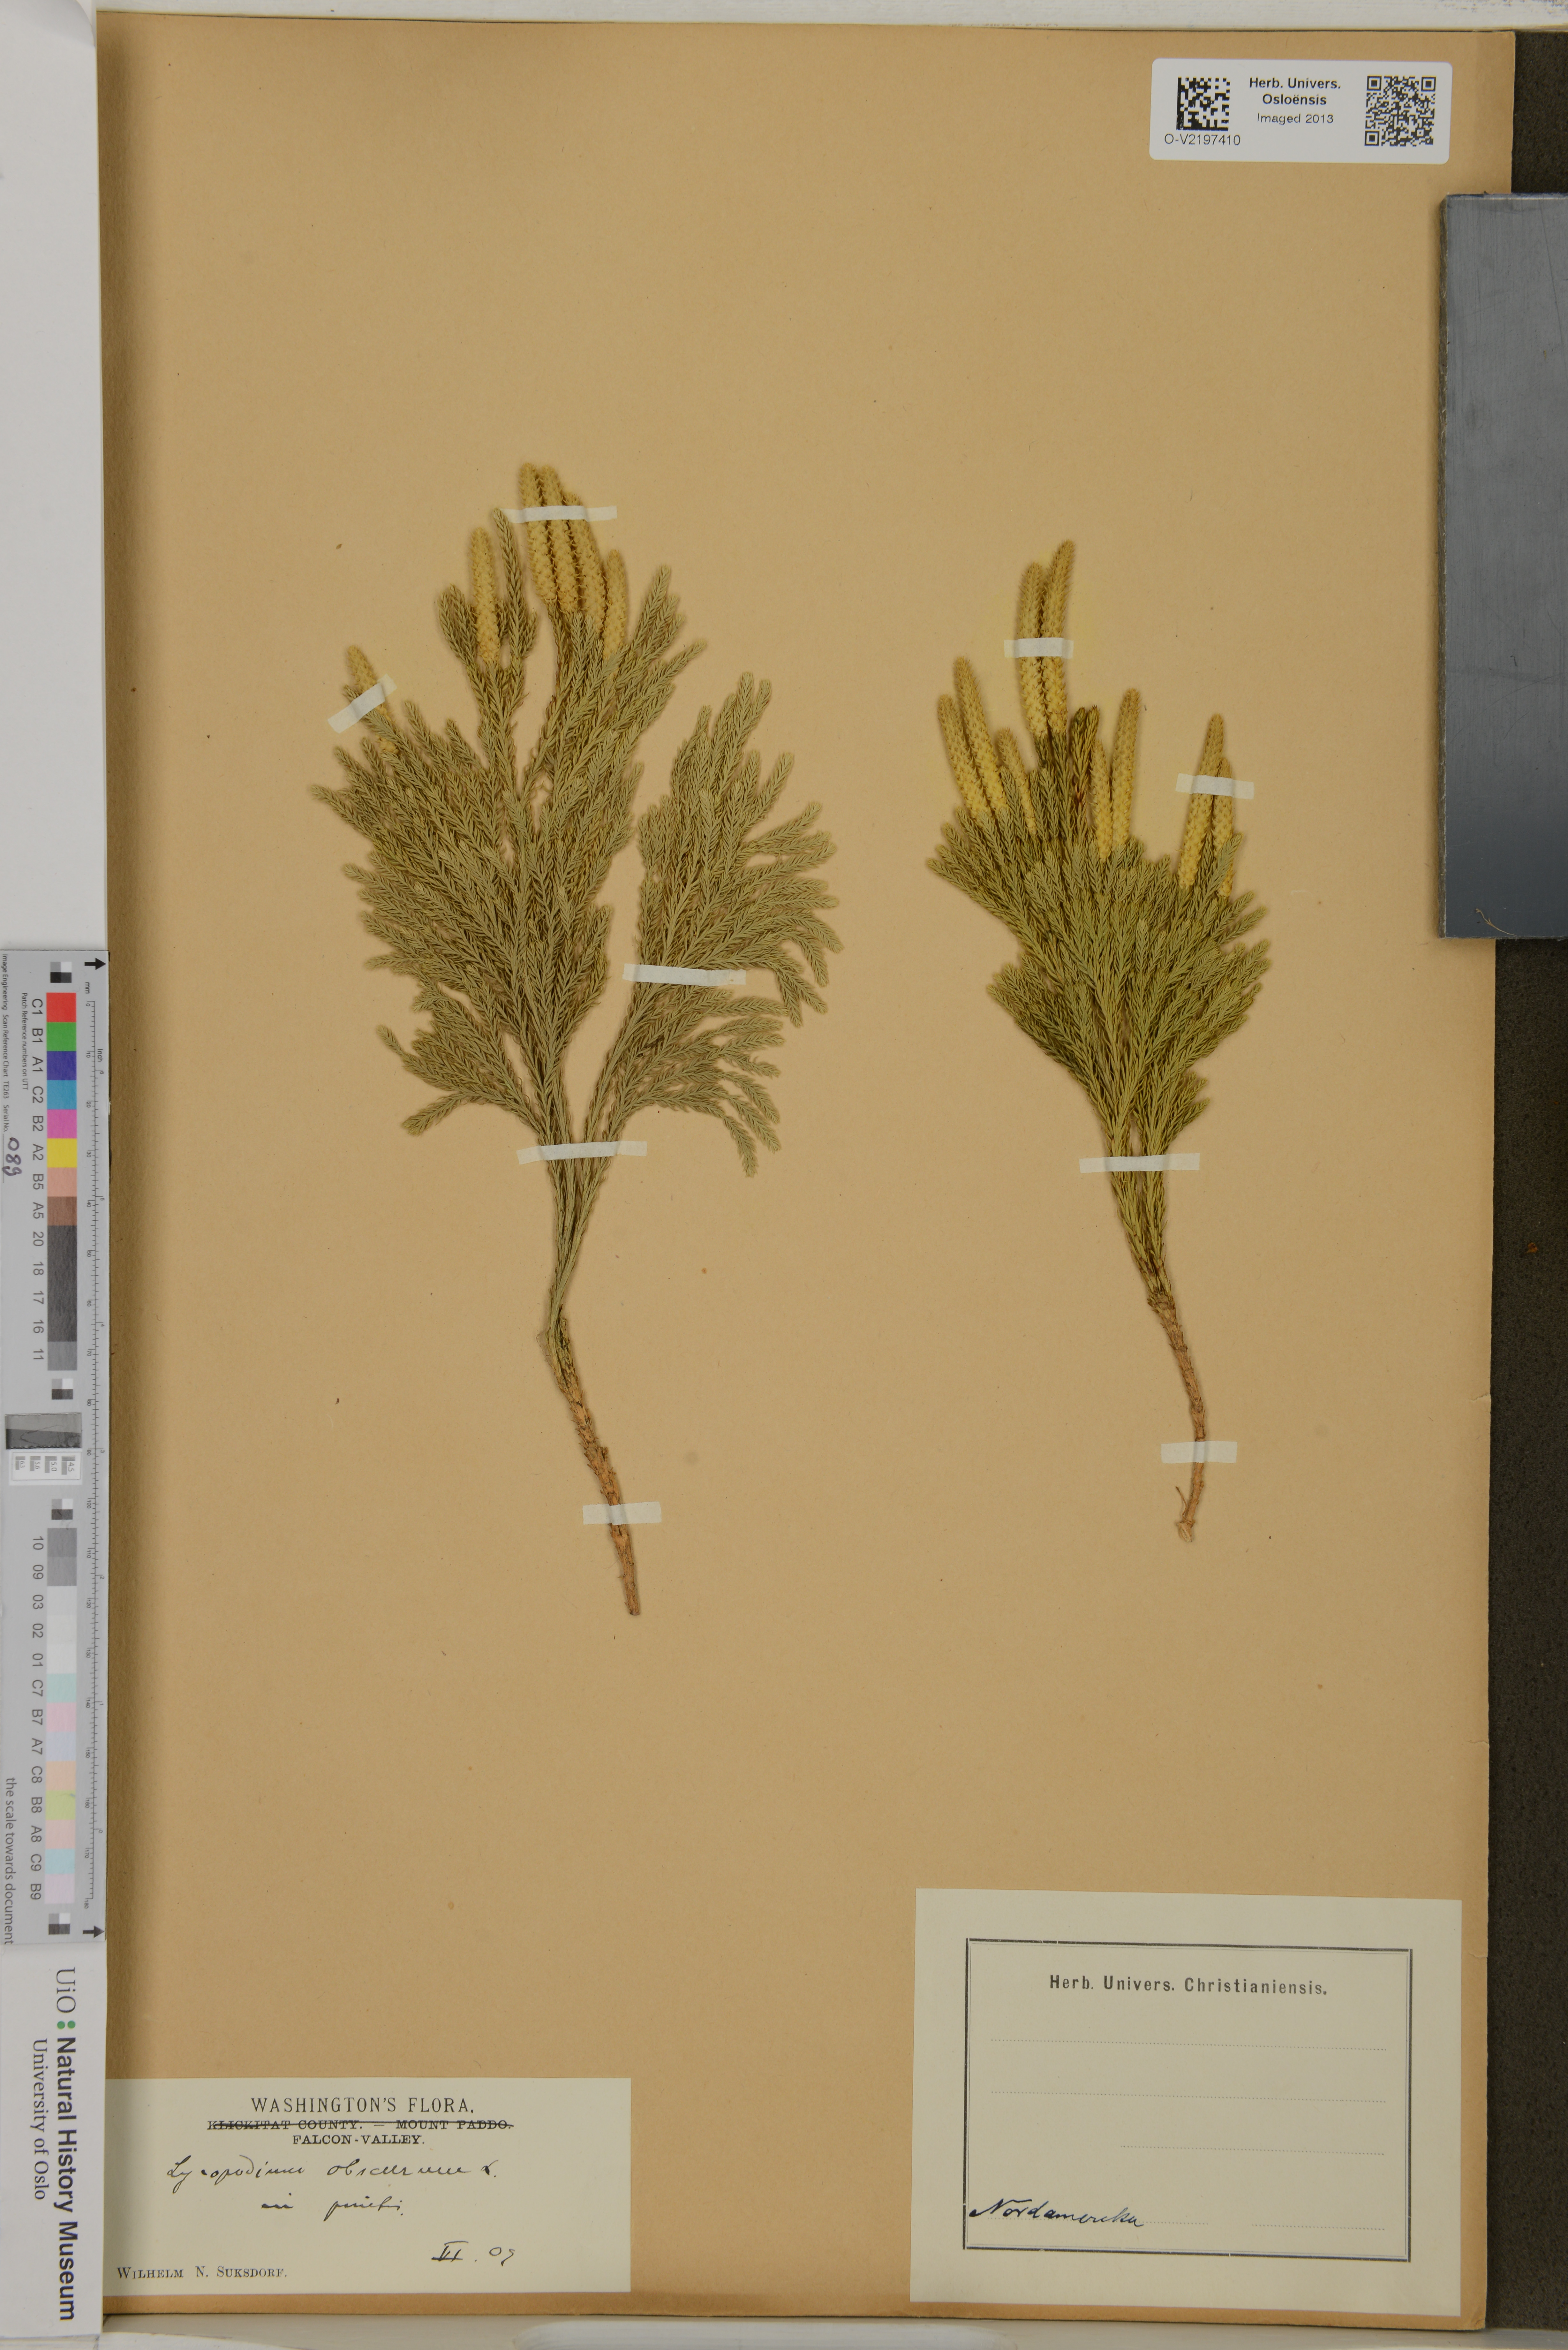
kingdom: Plantae
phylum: Tracheophyta
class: Lycopodiopsida
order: Lycopodiales
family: Lycopodiaceae
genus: Dendrolycopodium
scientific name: Dendrolycopodium obscurum
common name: Common ground-pine
